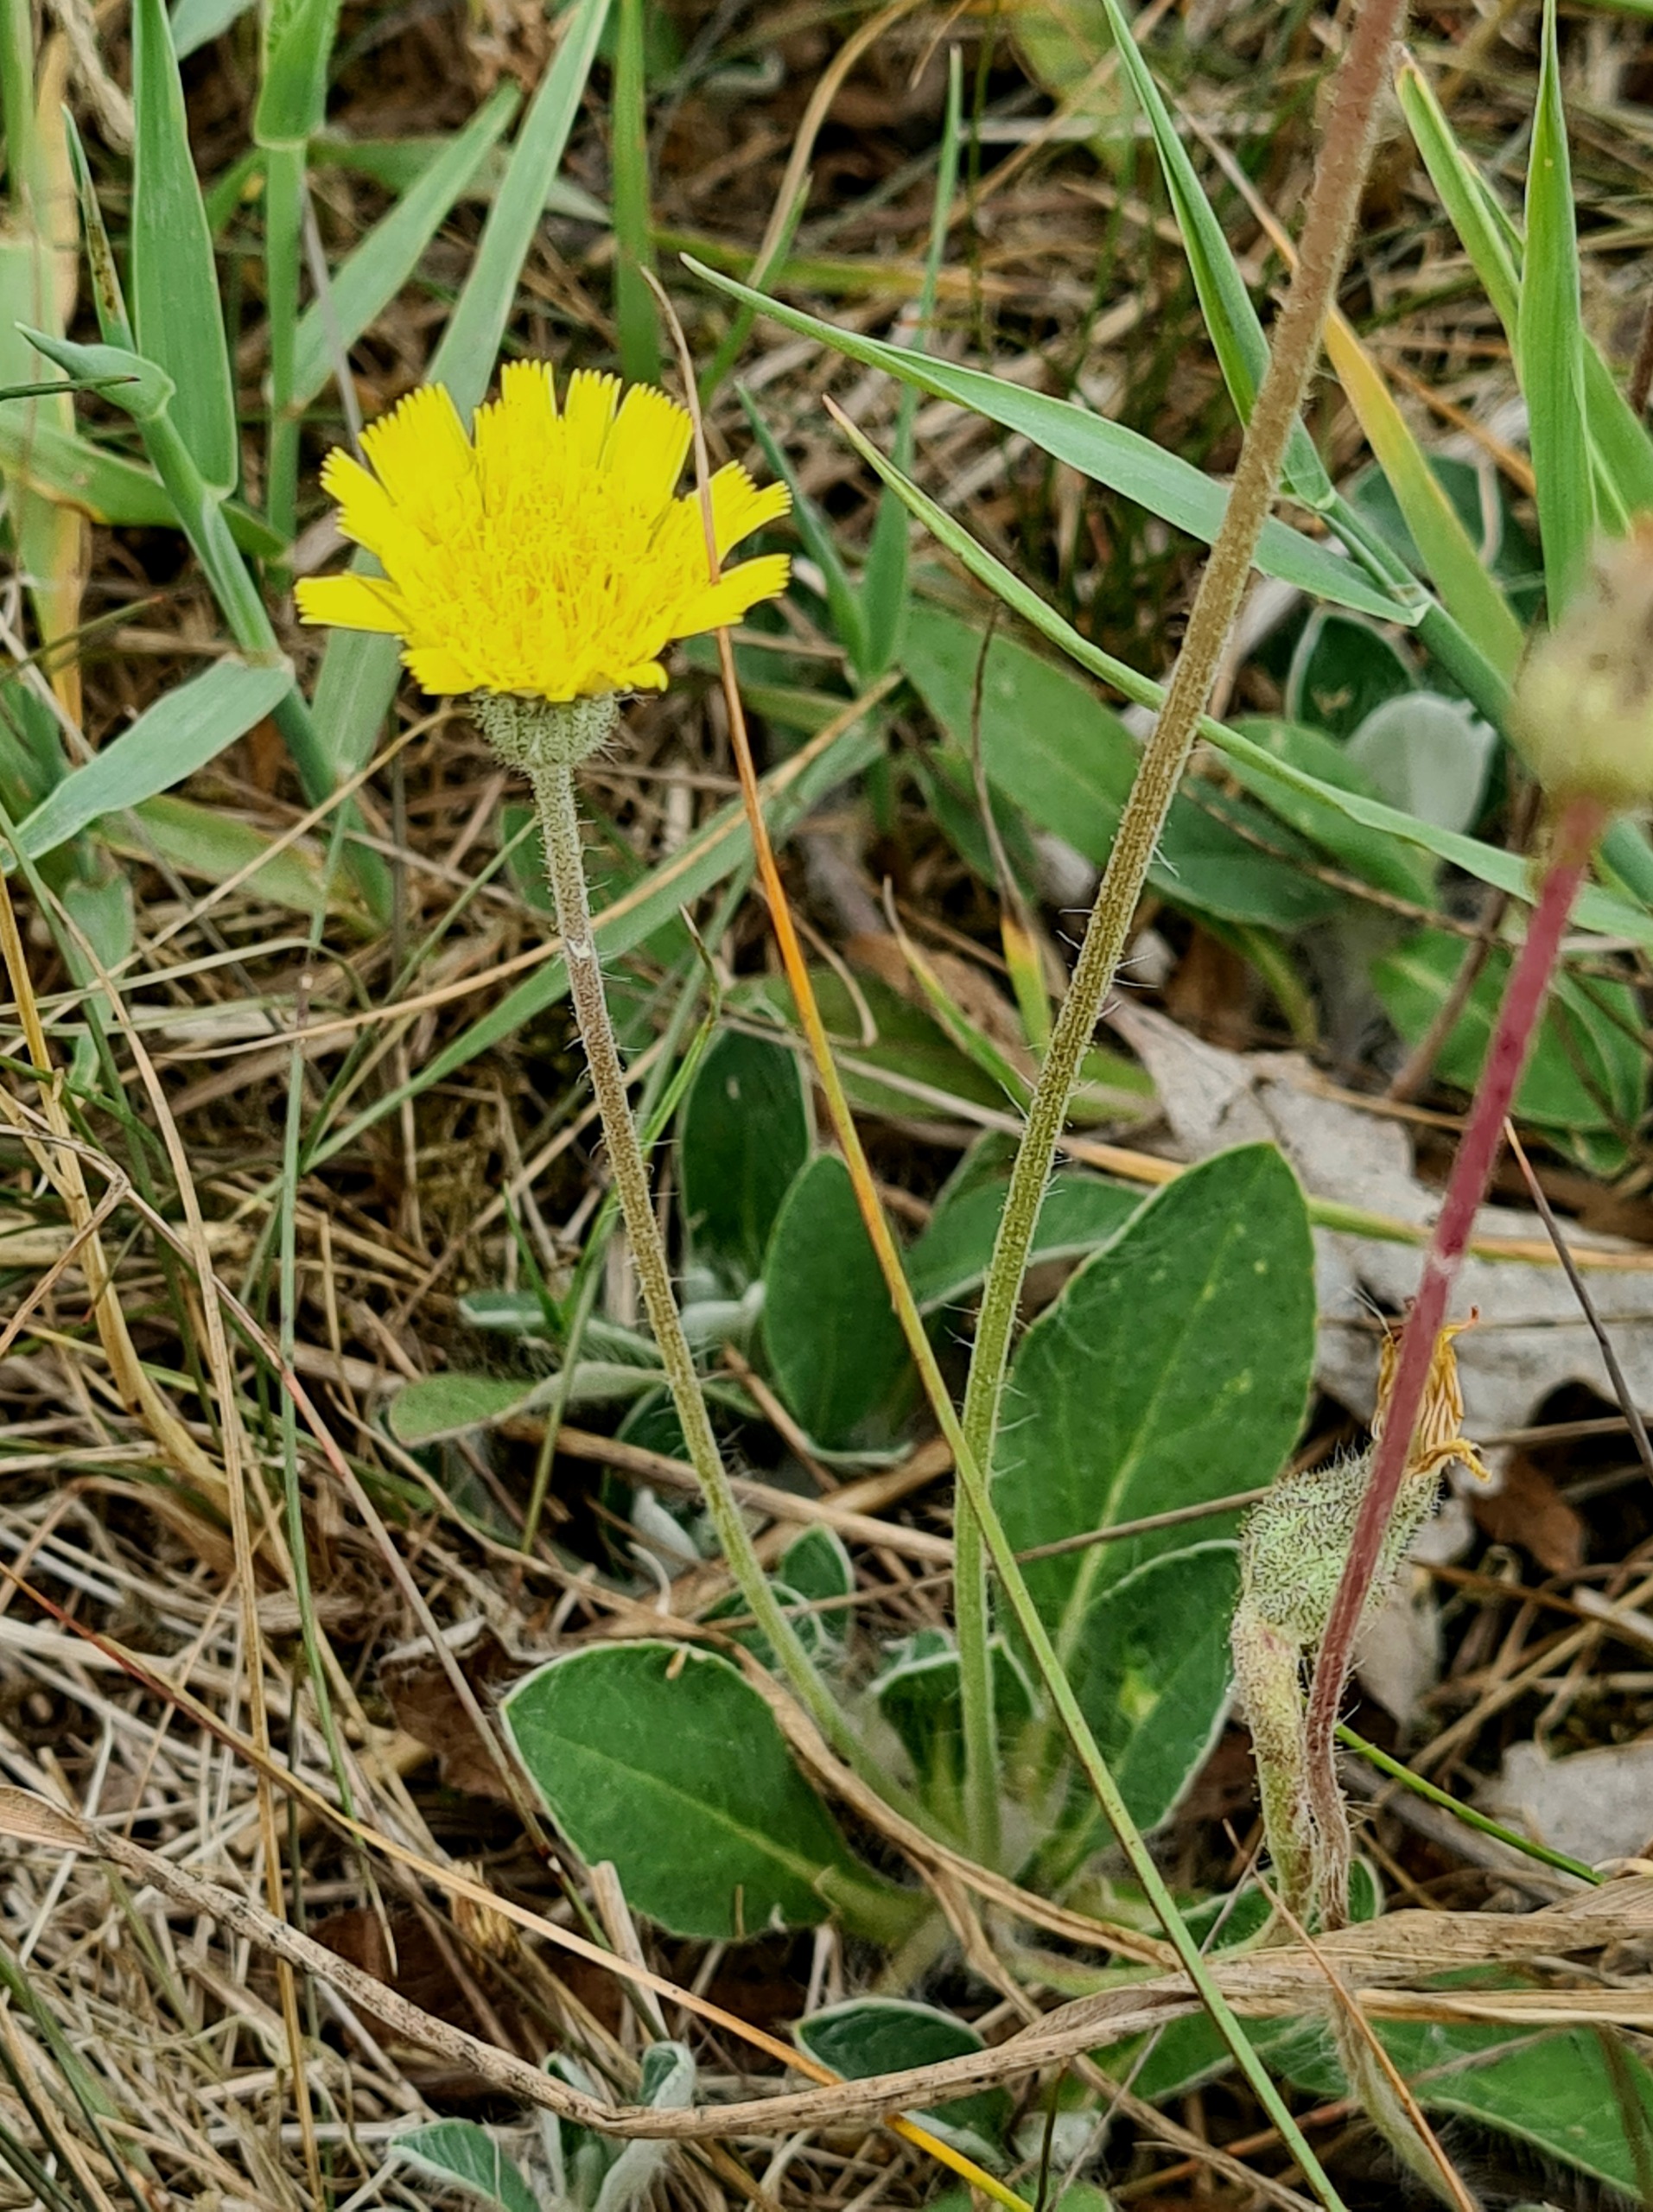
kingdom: Plantae
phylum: Tracheophyta
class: Magnoliopsida
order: Asterales
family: Asteraceae
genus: Pilosella
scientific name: Pilosella officinarum
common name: Håret høgeurt
